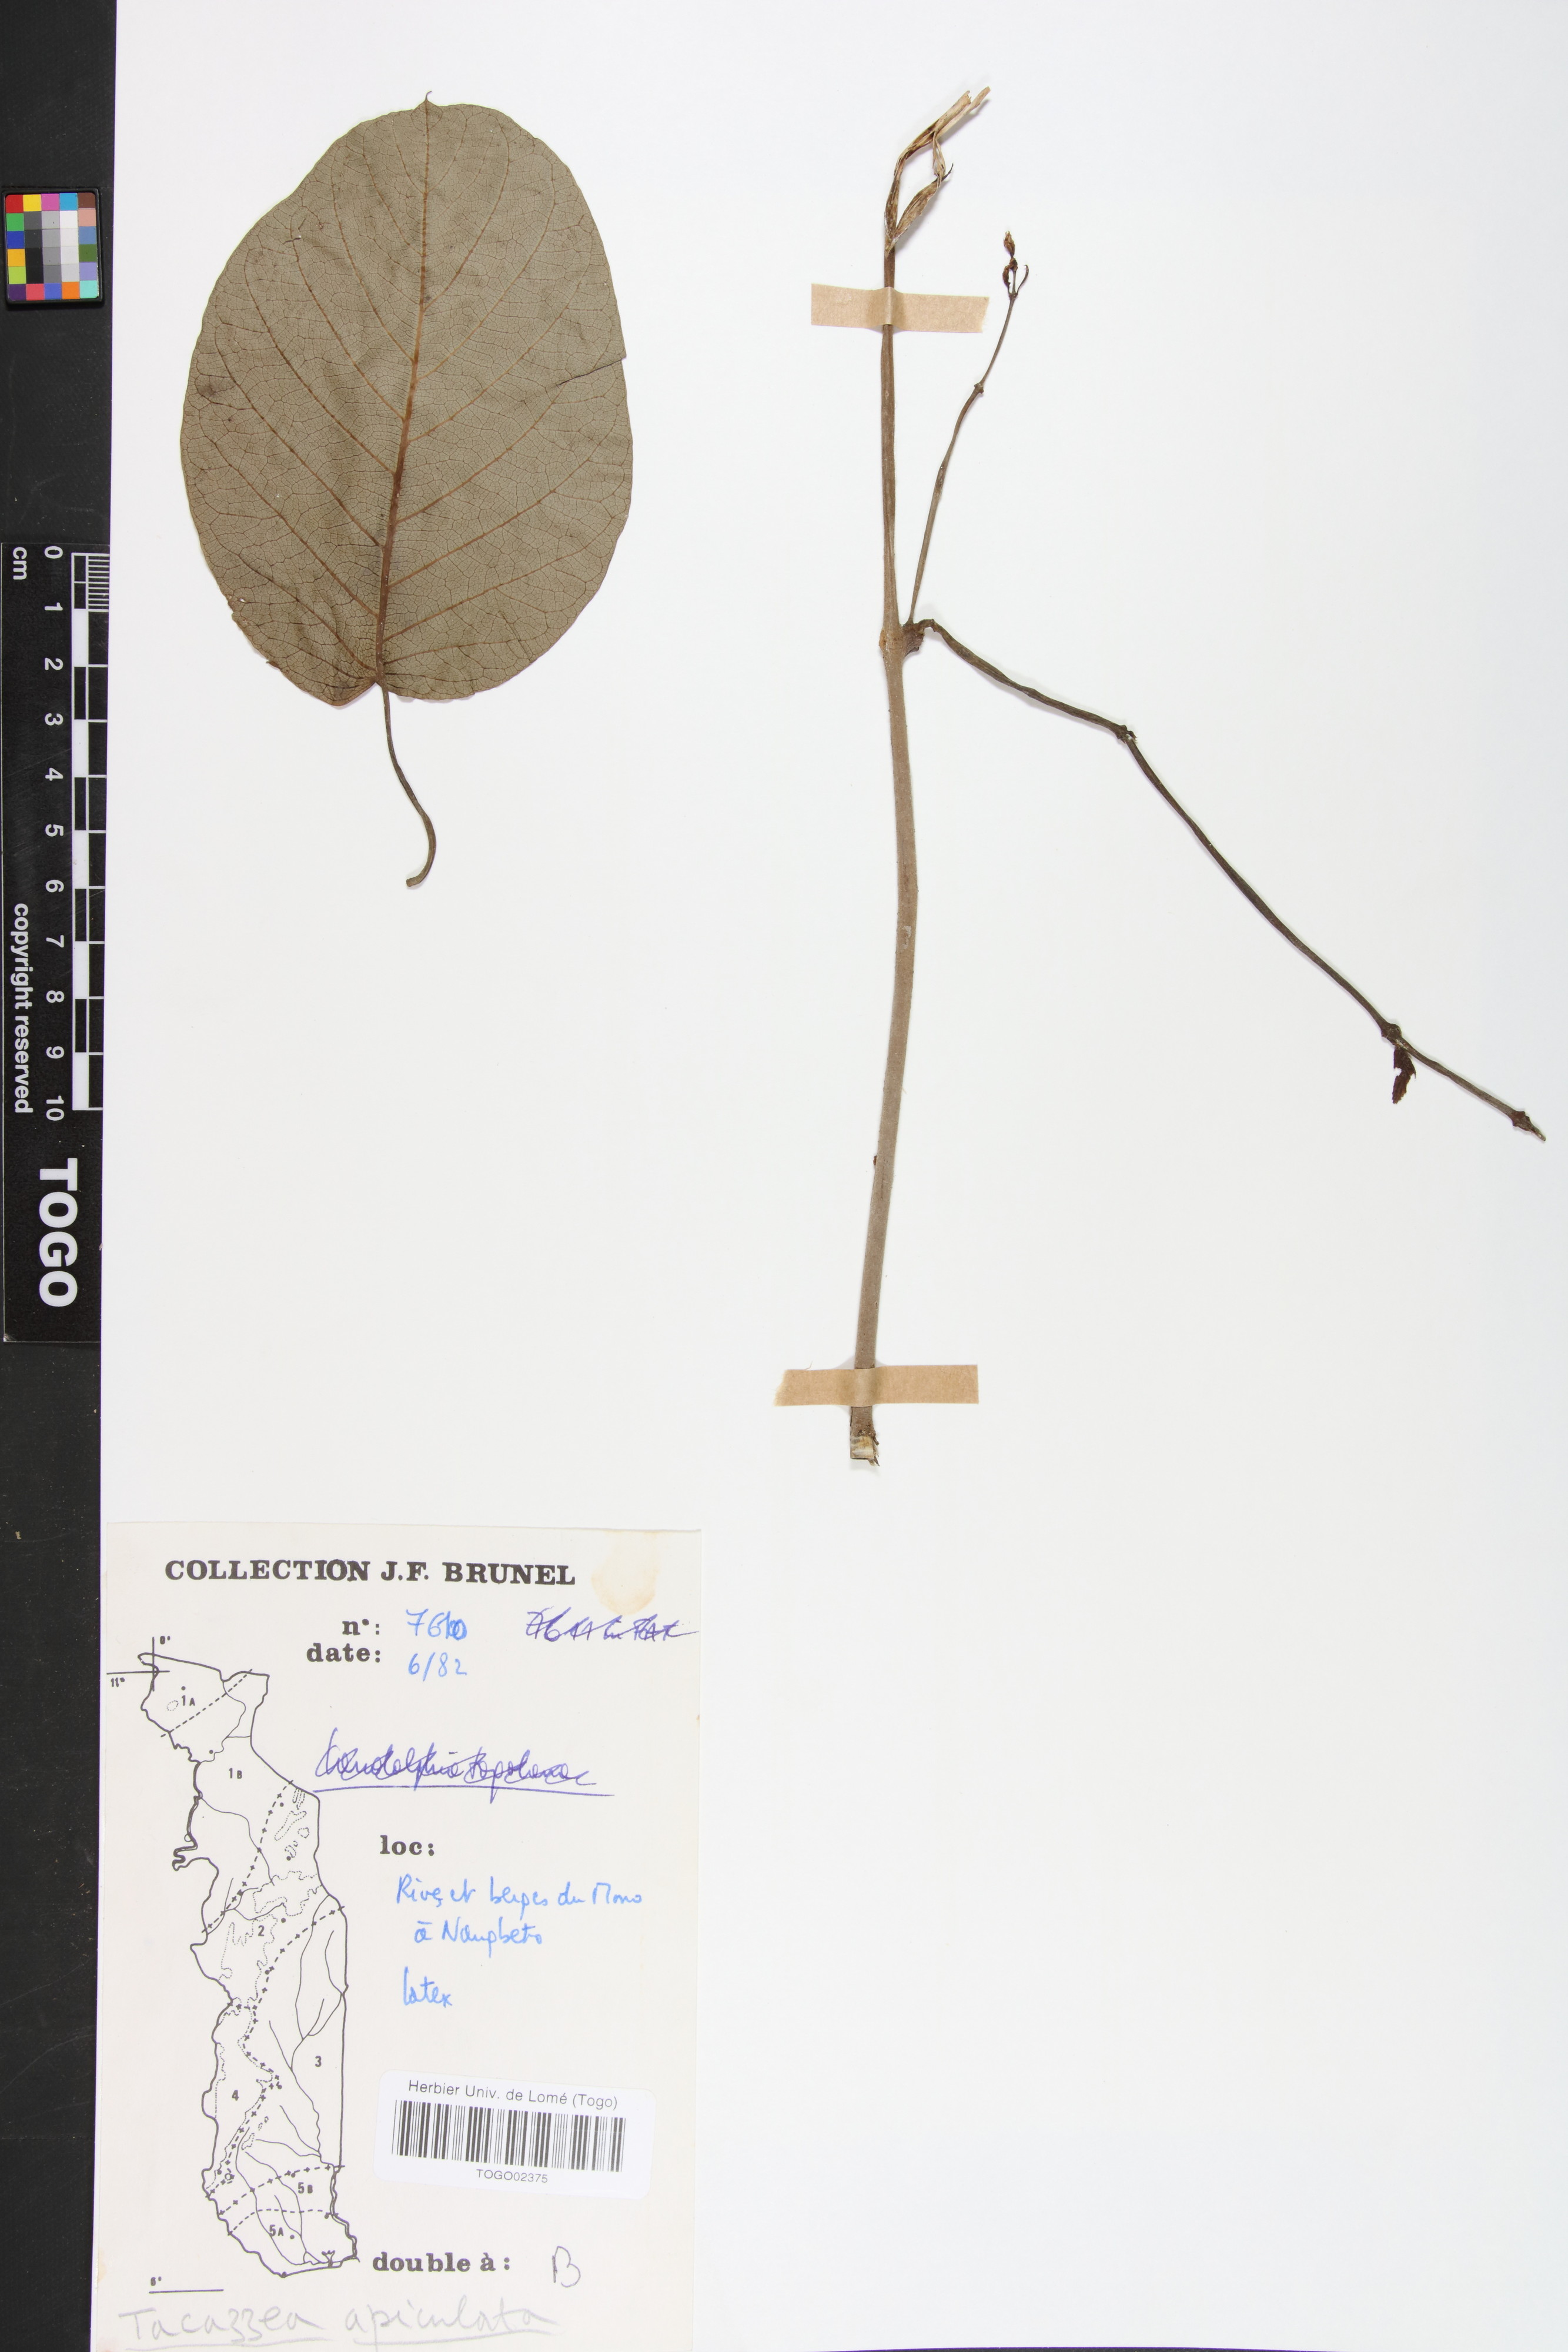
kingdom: Plantae
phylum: Tracheophyta
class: Magnoliopsida
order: Gentianales
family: Apocynaceae
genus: Tacazzea
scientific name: Tacazzea apiculata
